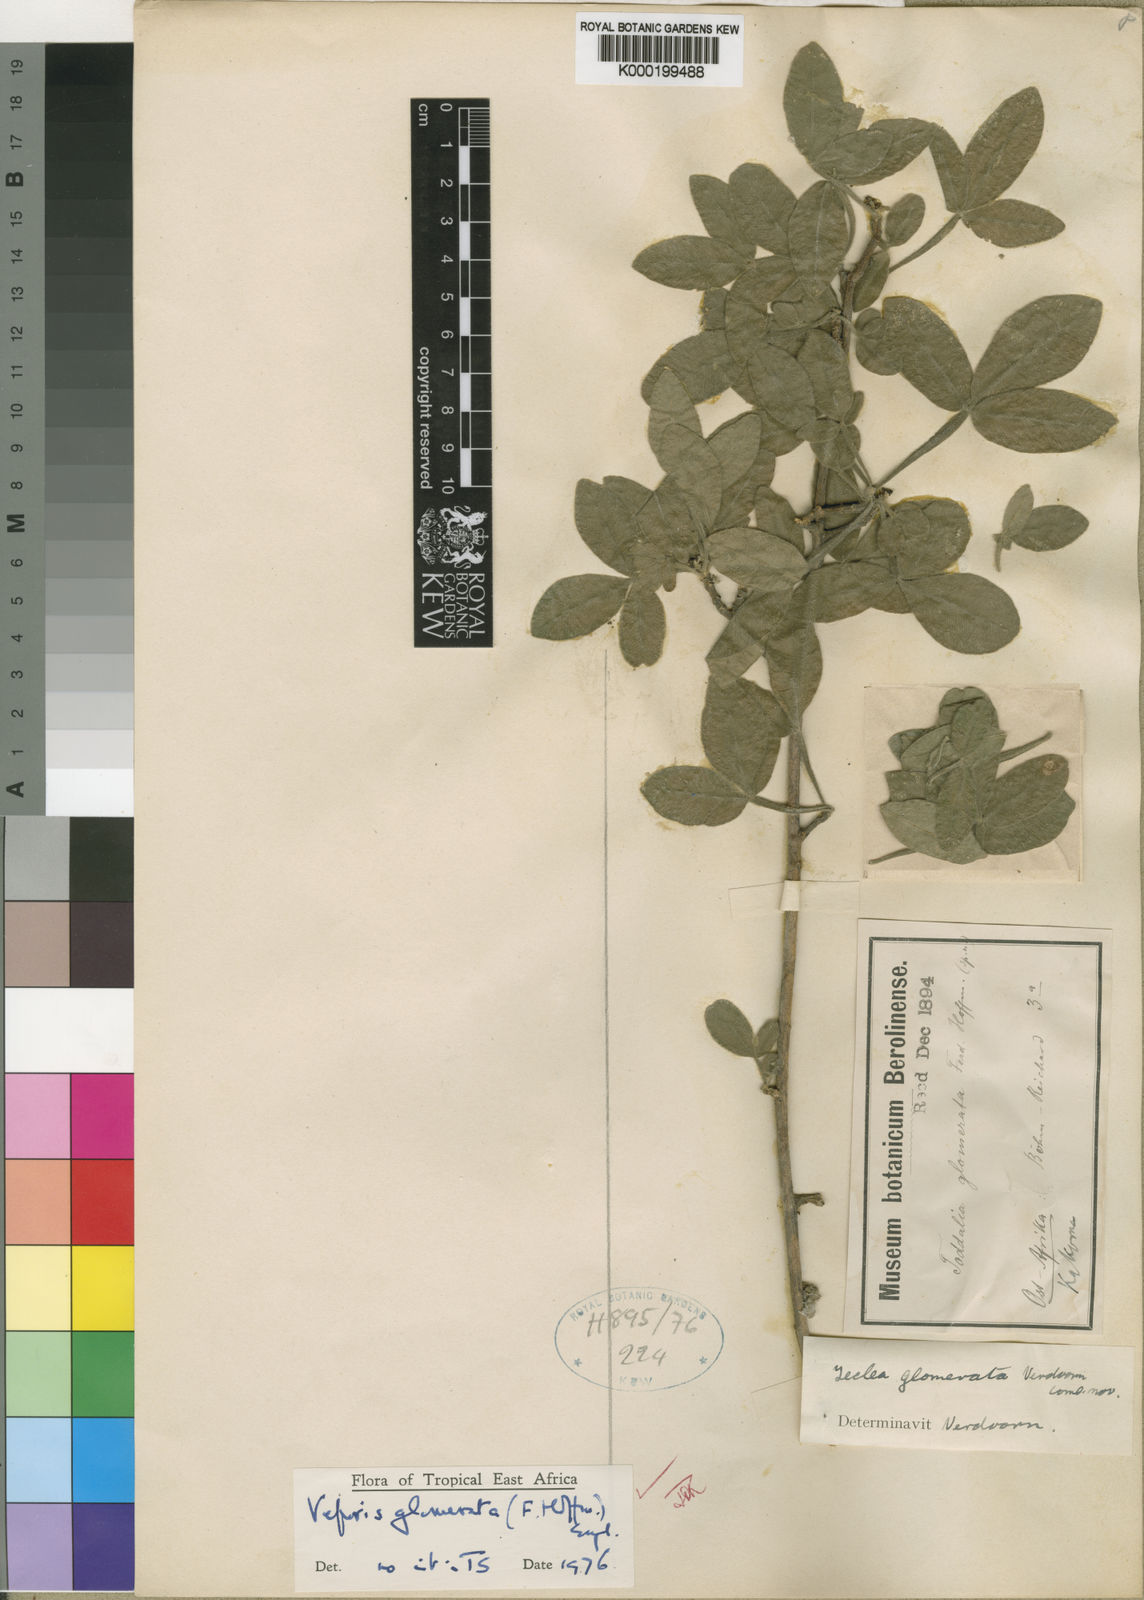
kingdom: Plantae
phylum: Tracheophyta
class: Magnoliopsida
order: Sapindales
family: Rutaceae
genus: Vepris
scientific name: Vepris glomerata
